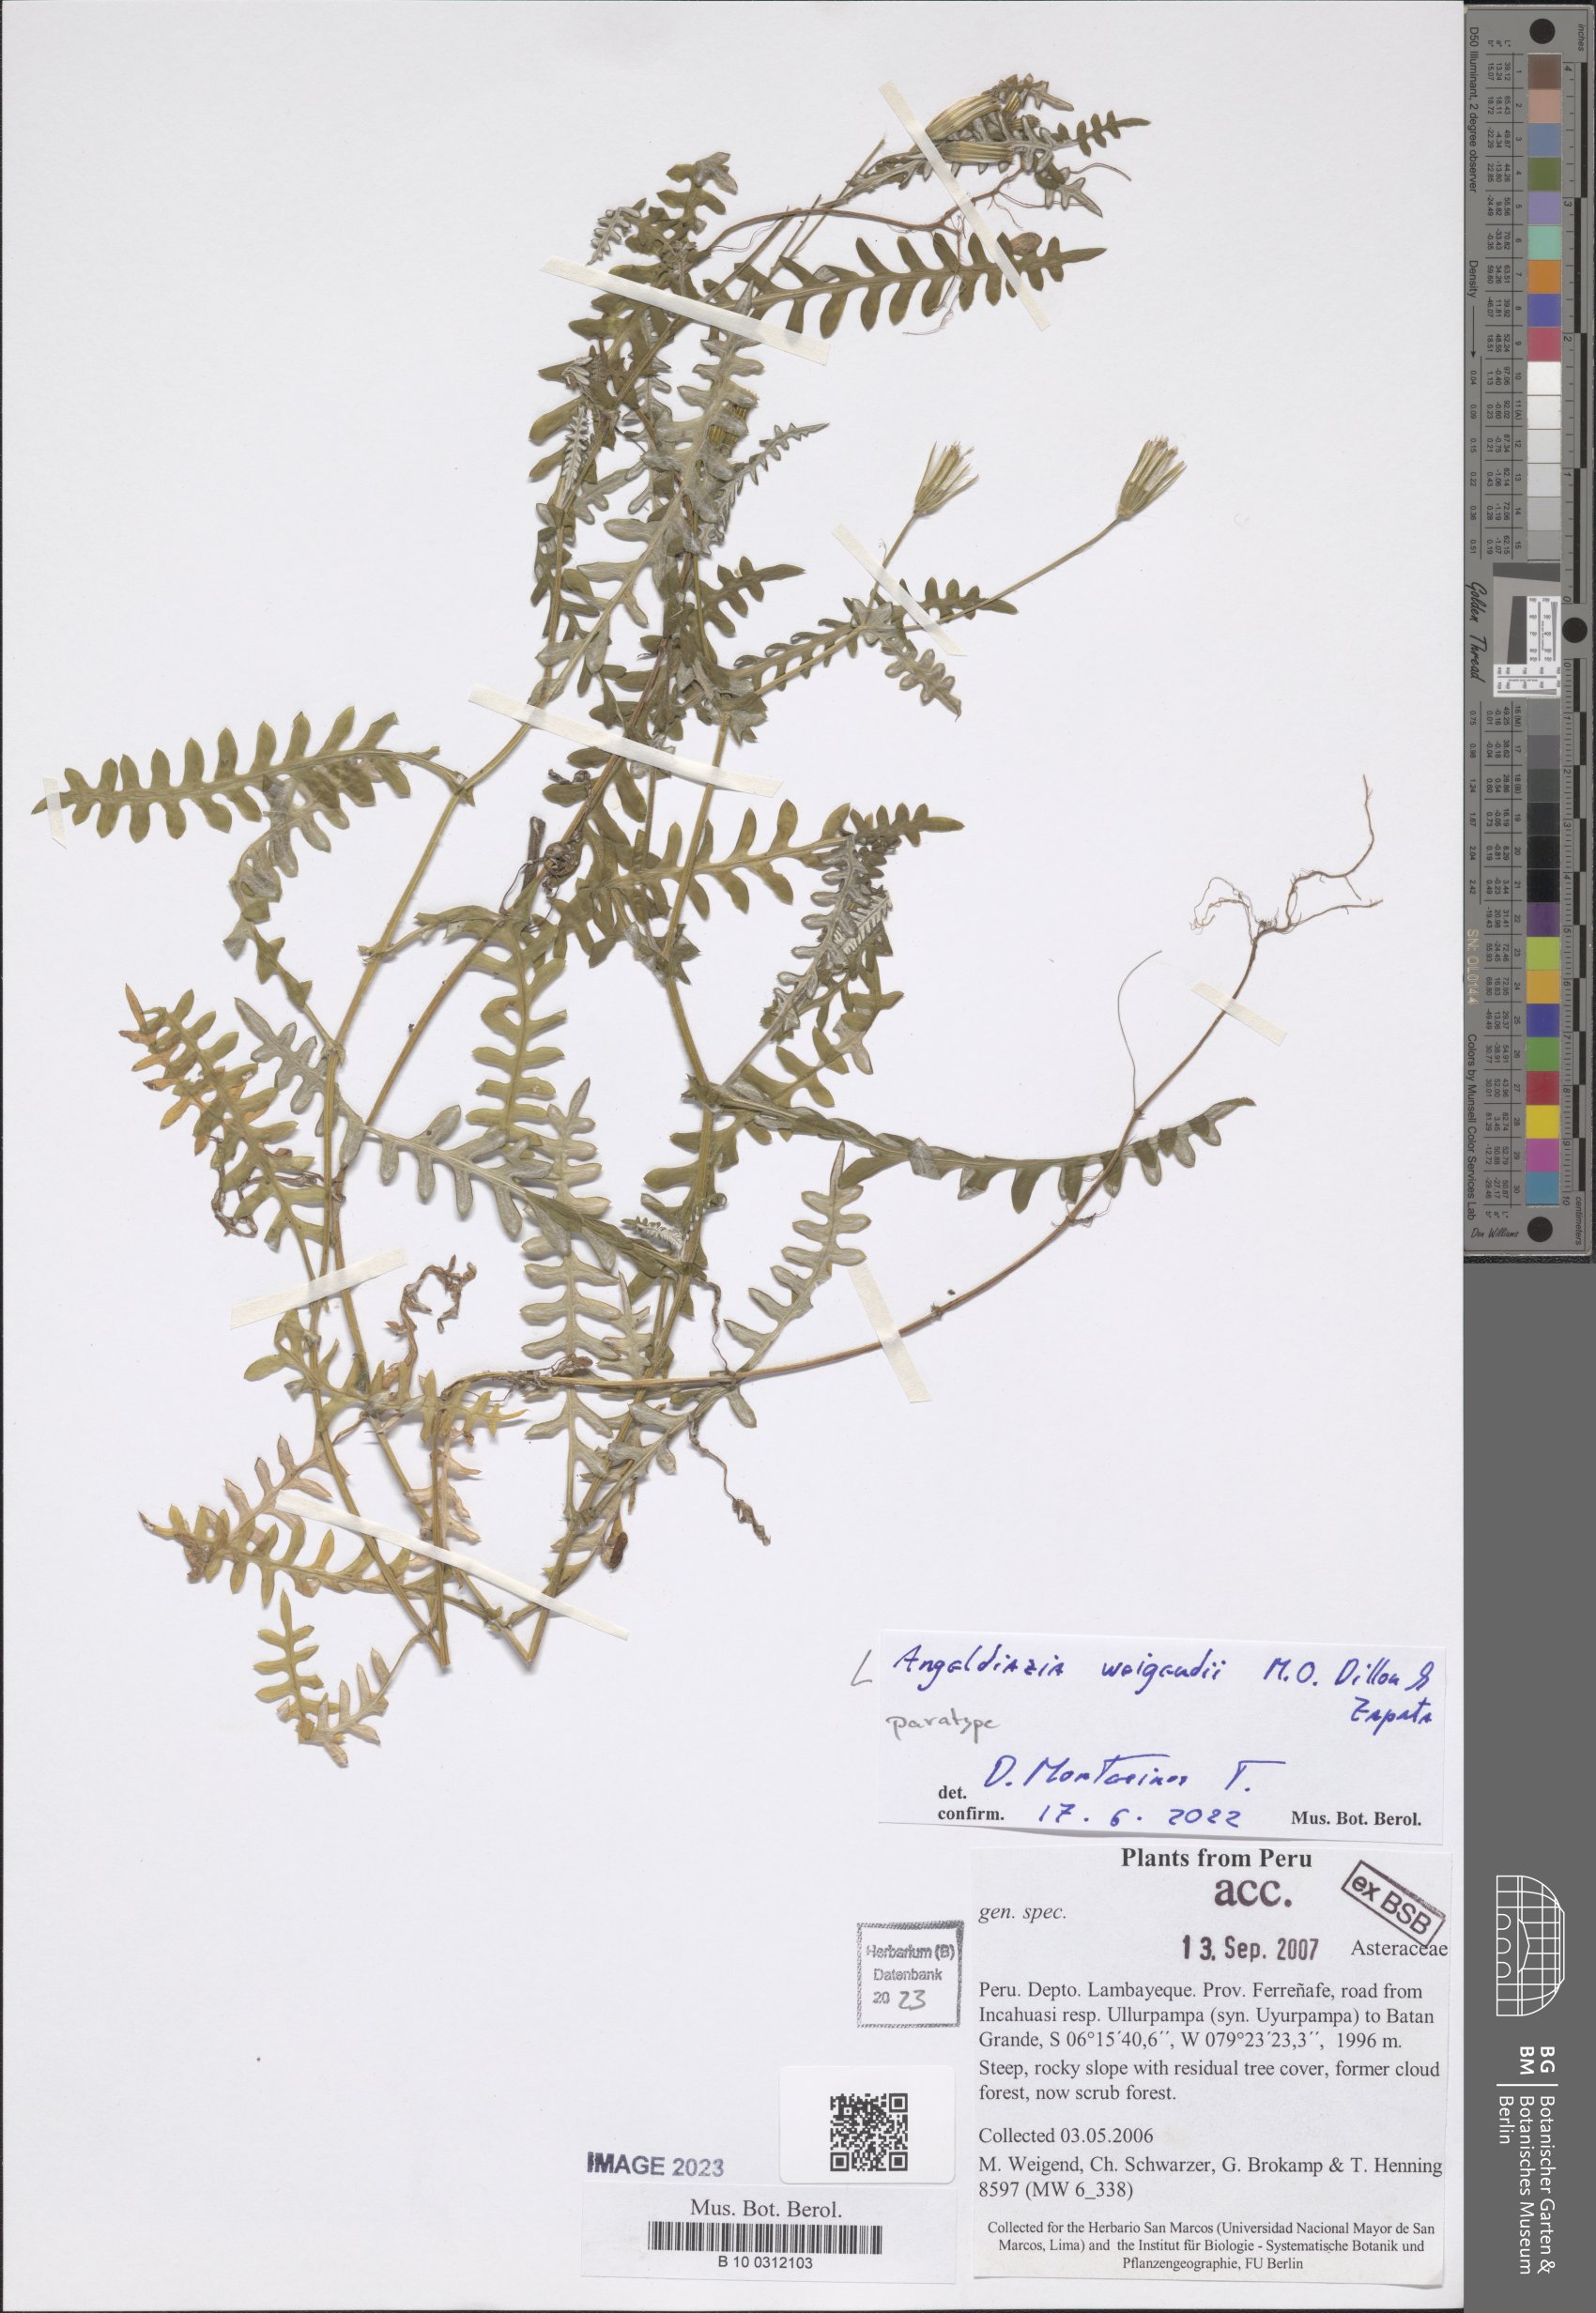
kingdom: Plantae
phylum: Tracheophyta
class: Magnoliopsida
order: Asterales
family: Asteraceae
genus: Angeldiazia
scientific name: Angeldiazia weigendii
